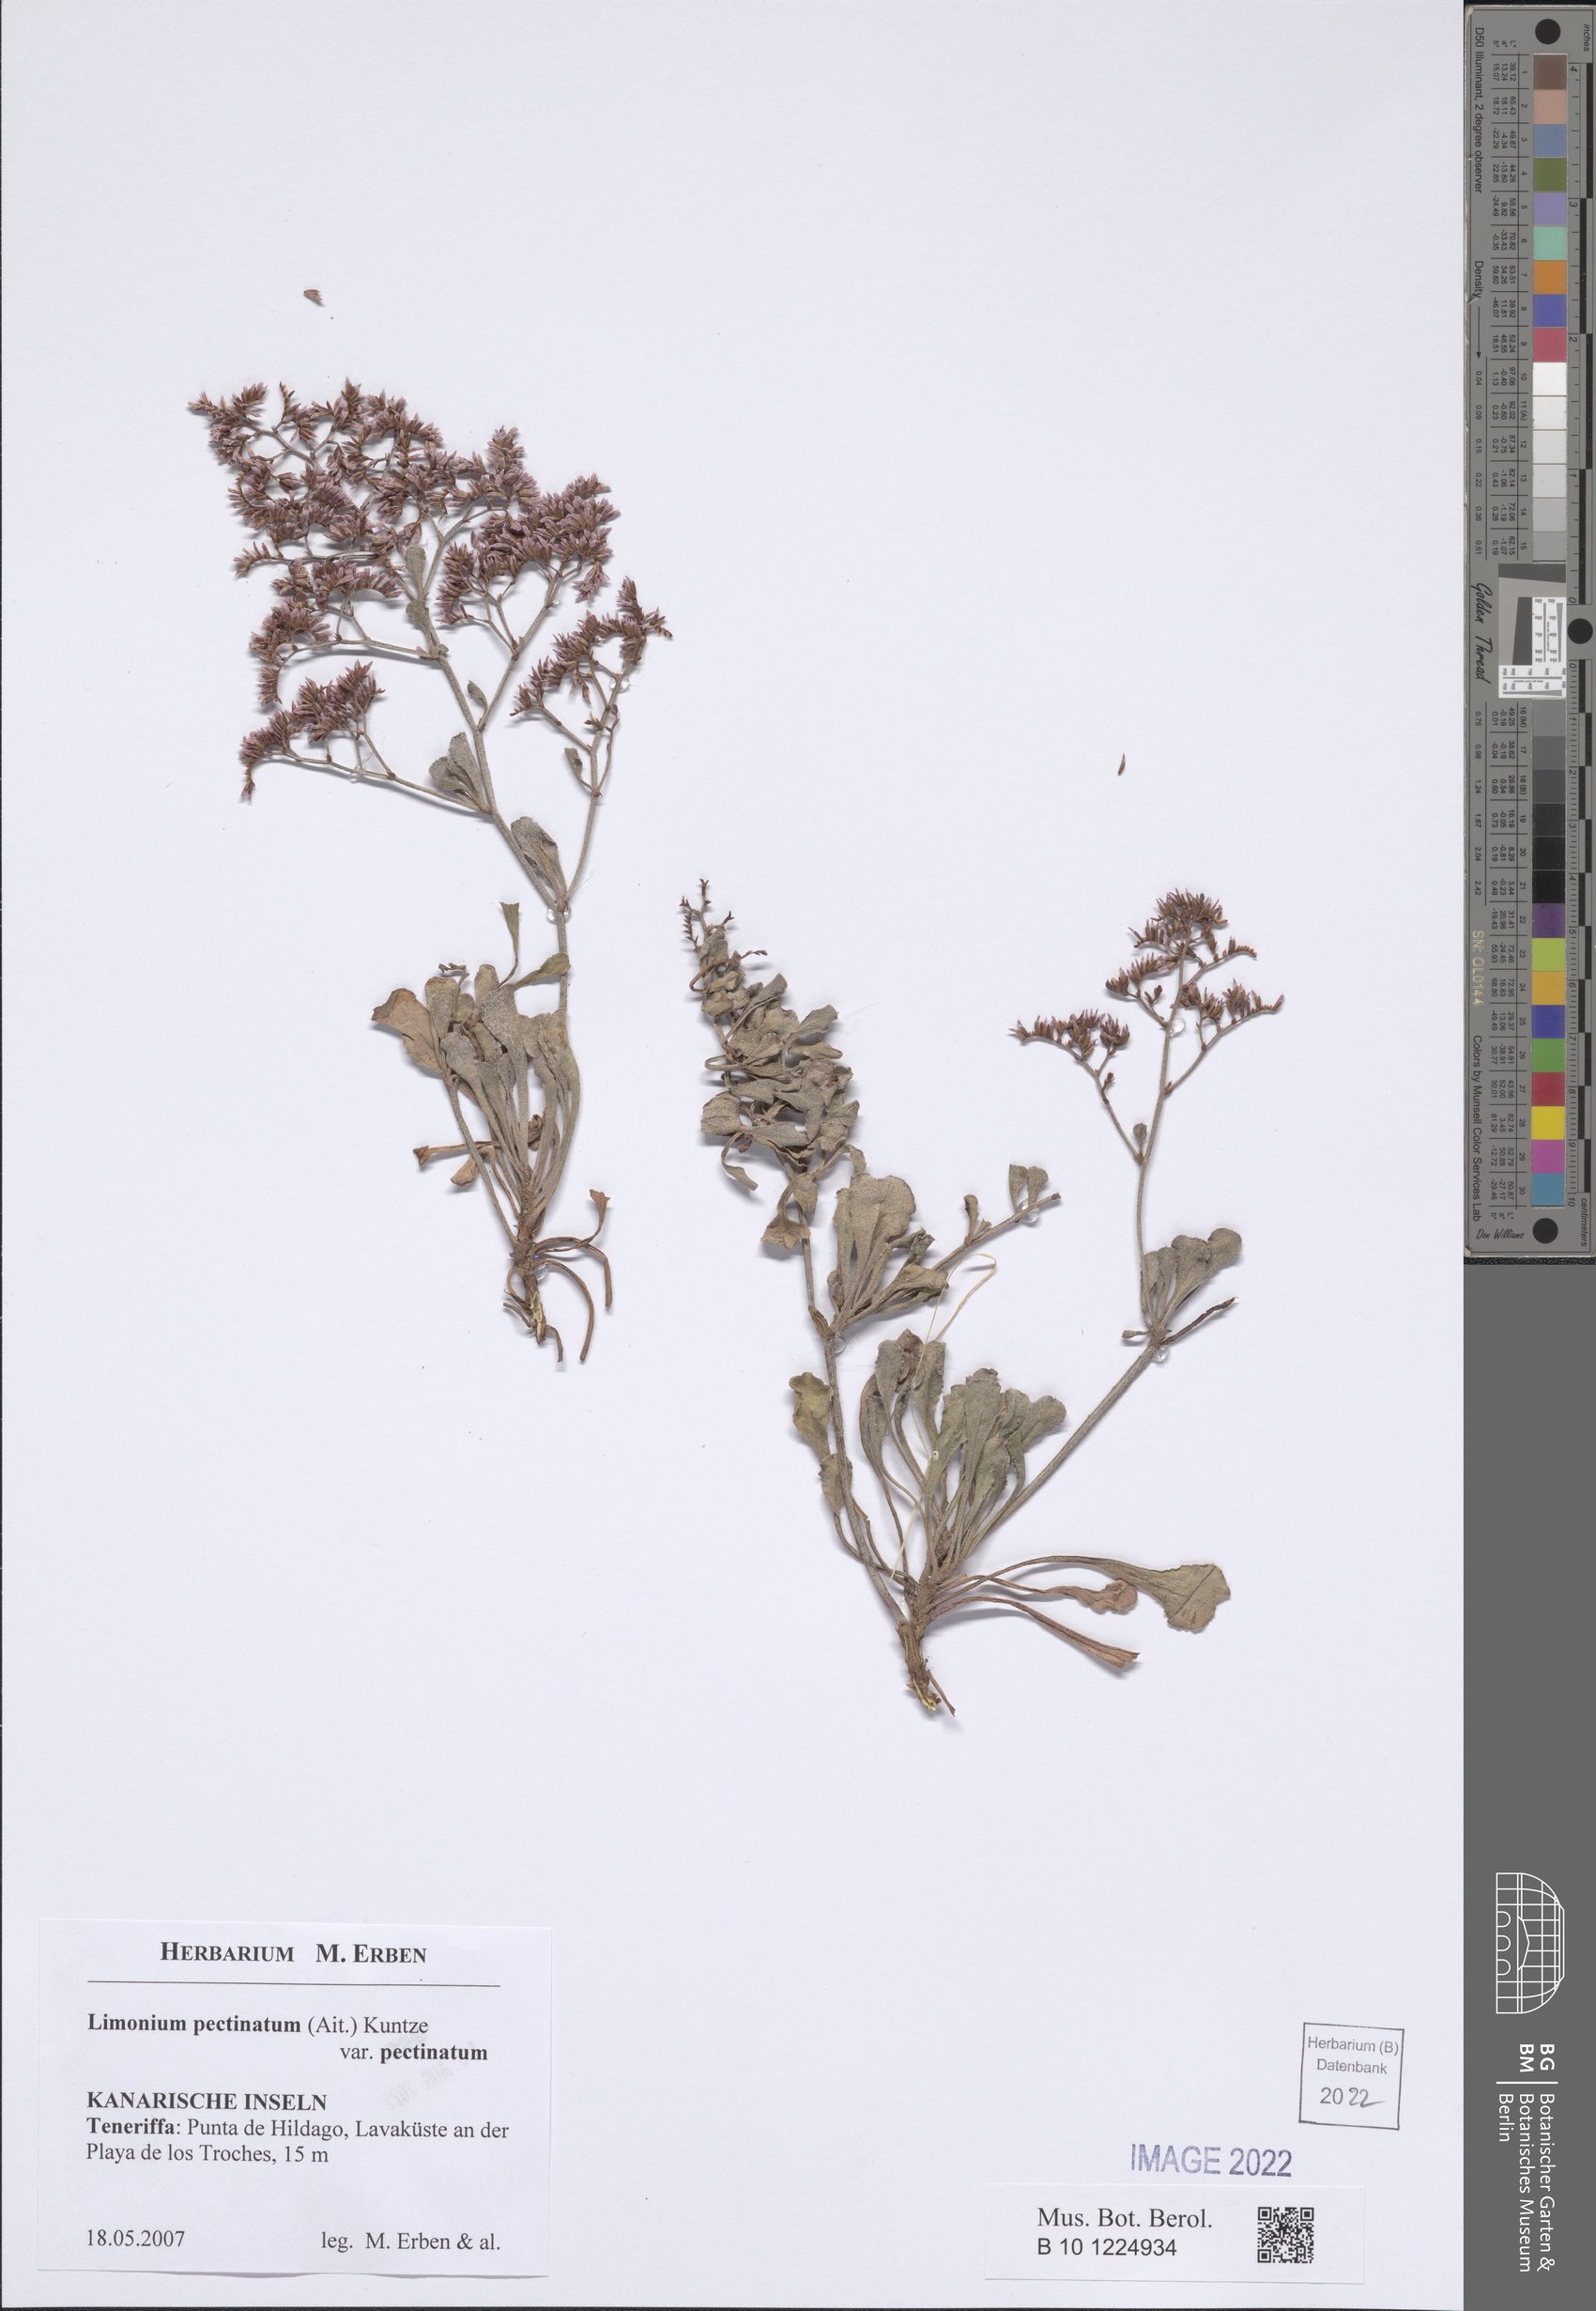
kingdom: Plantae
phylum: Tracheophyta
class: Magnoliopsida
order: Caryophyllales
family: Plumbaginaceae
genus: Limonium
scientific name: Limonium pectinatum
